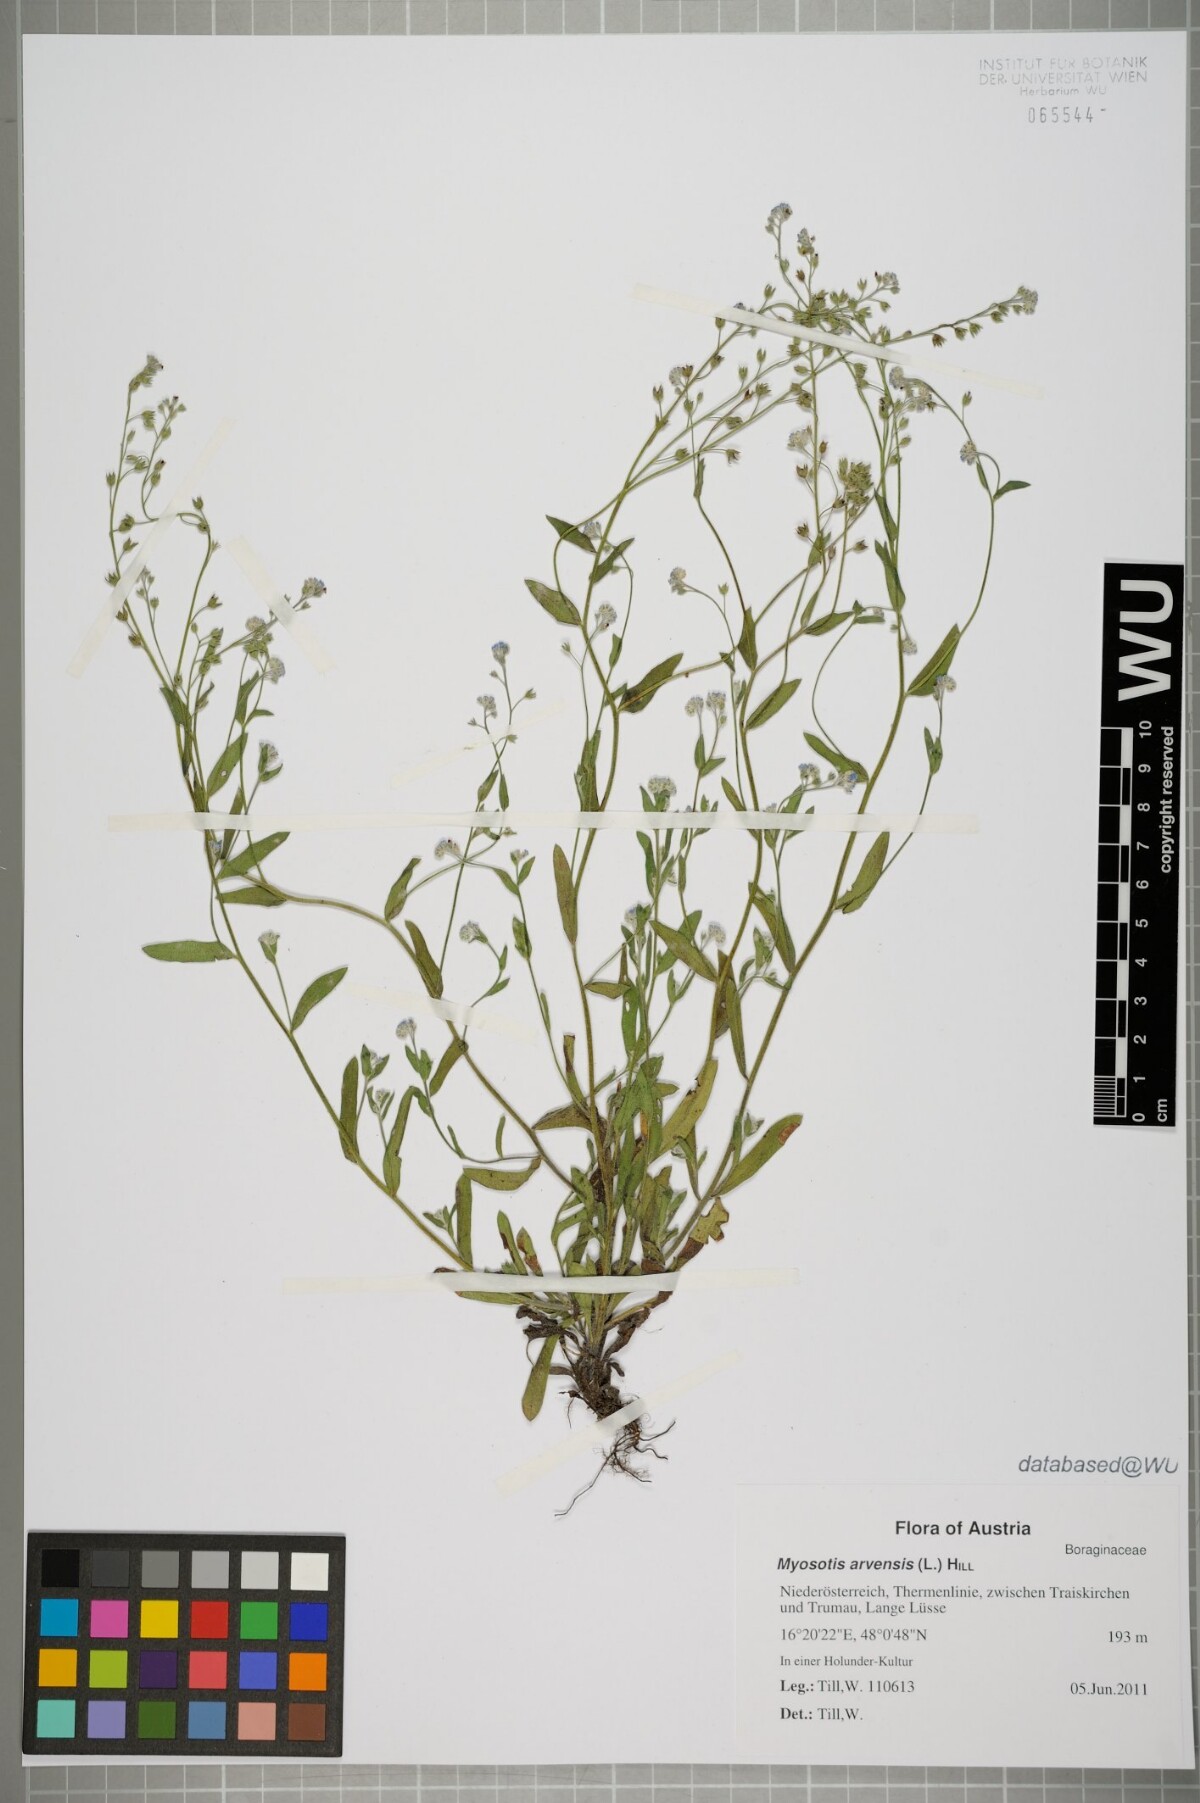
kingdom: Plantae
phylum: Tracheophyta
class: Magnoliopsida
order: Boraginales
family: Boraginaceae
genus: Myosotis
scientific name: Myosotis arvensis
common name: Field forget-me-not
